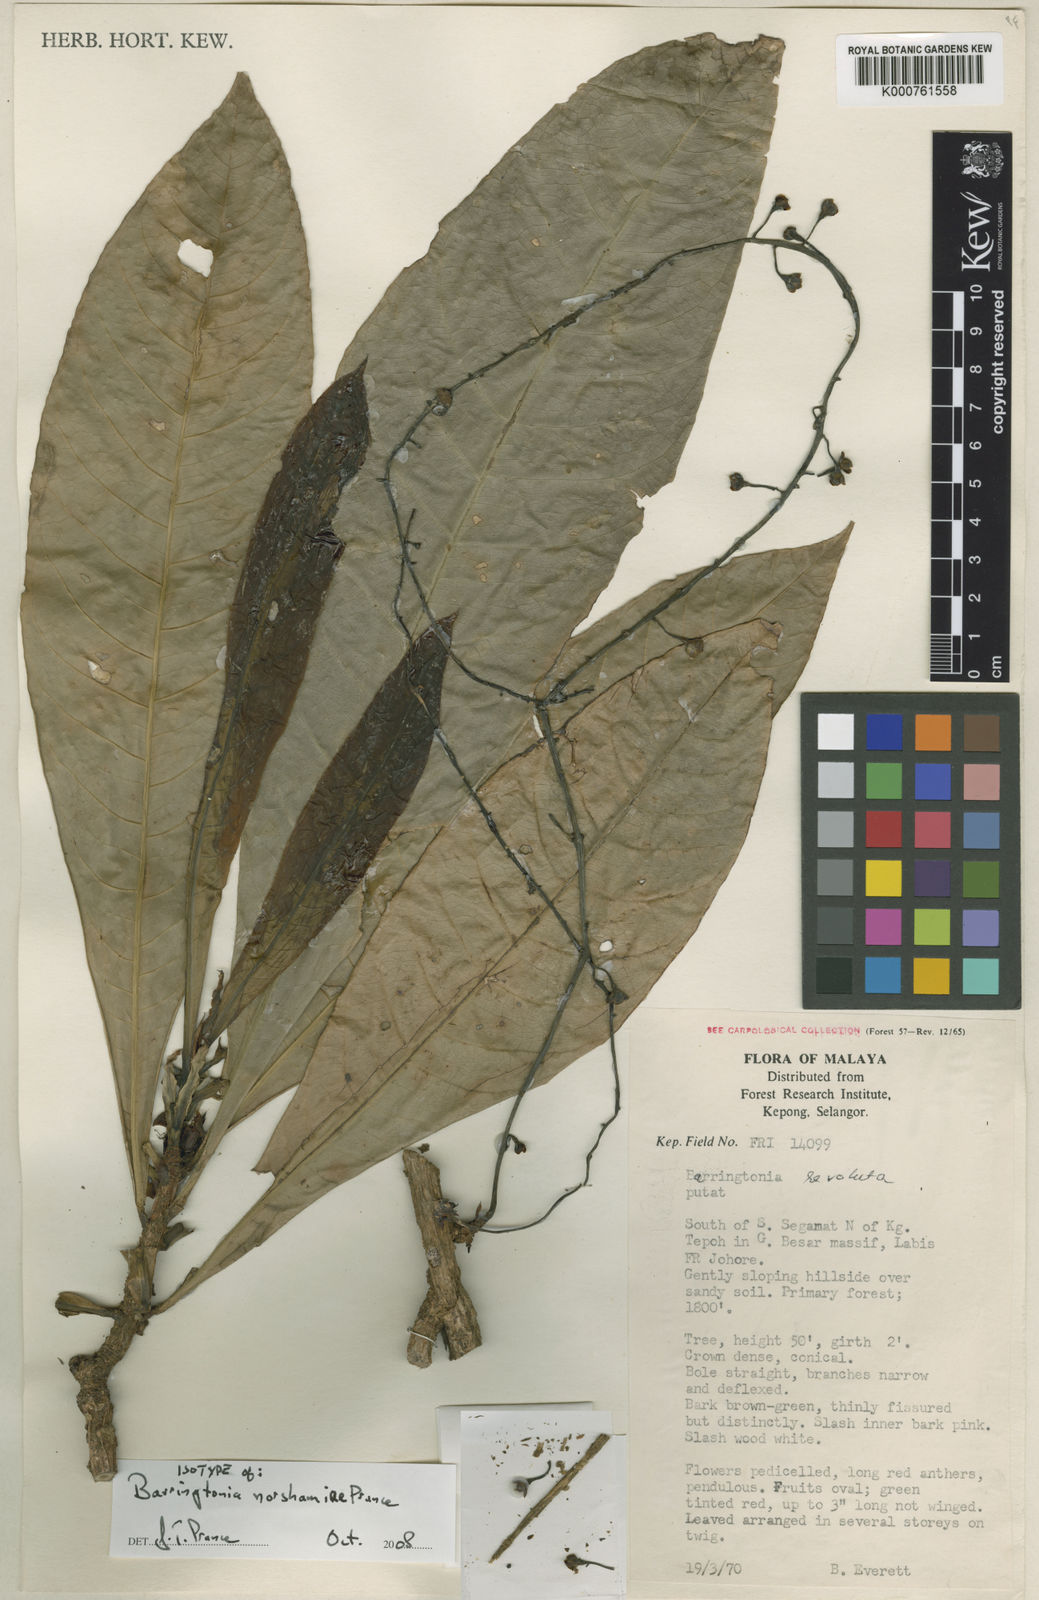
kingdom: Plantae
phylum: Tracheophyta
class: Magnoliopsida
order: Ericales
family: Lecythidaceae
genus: Barringtonia
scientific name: Barringtonia norshamiae
